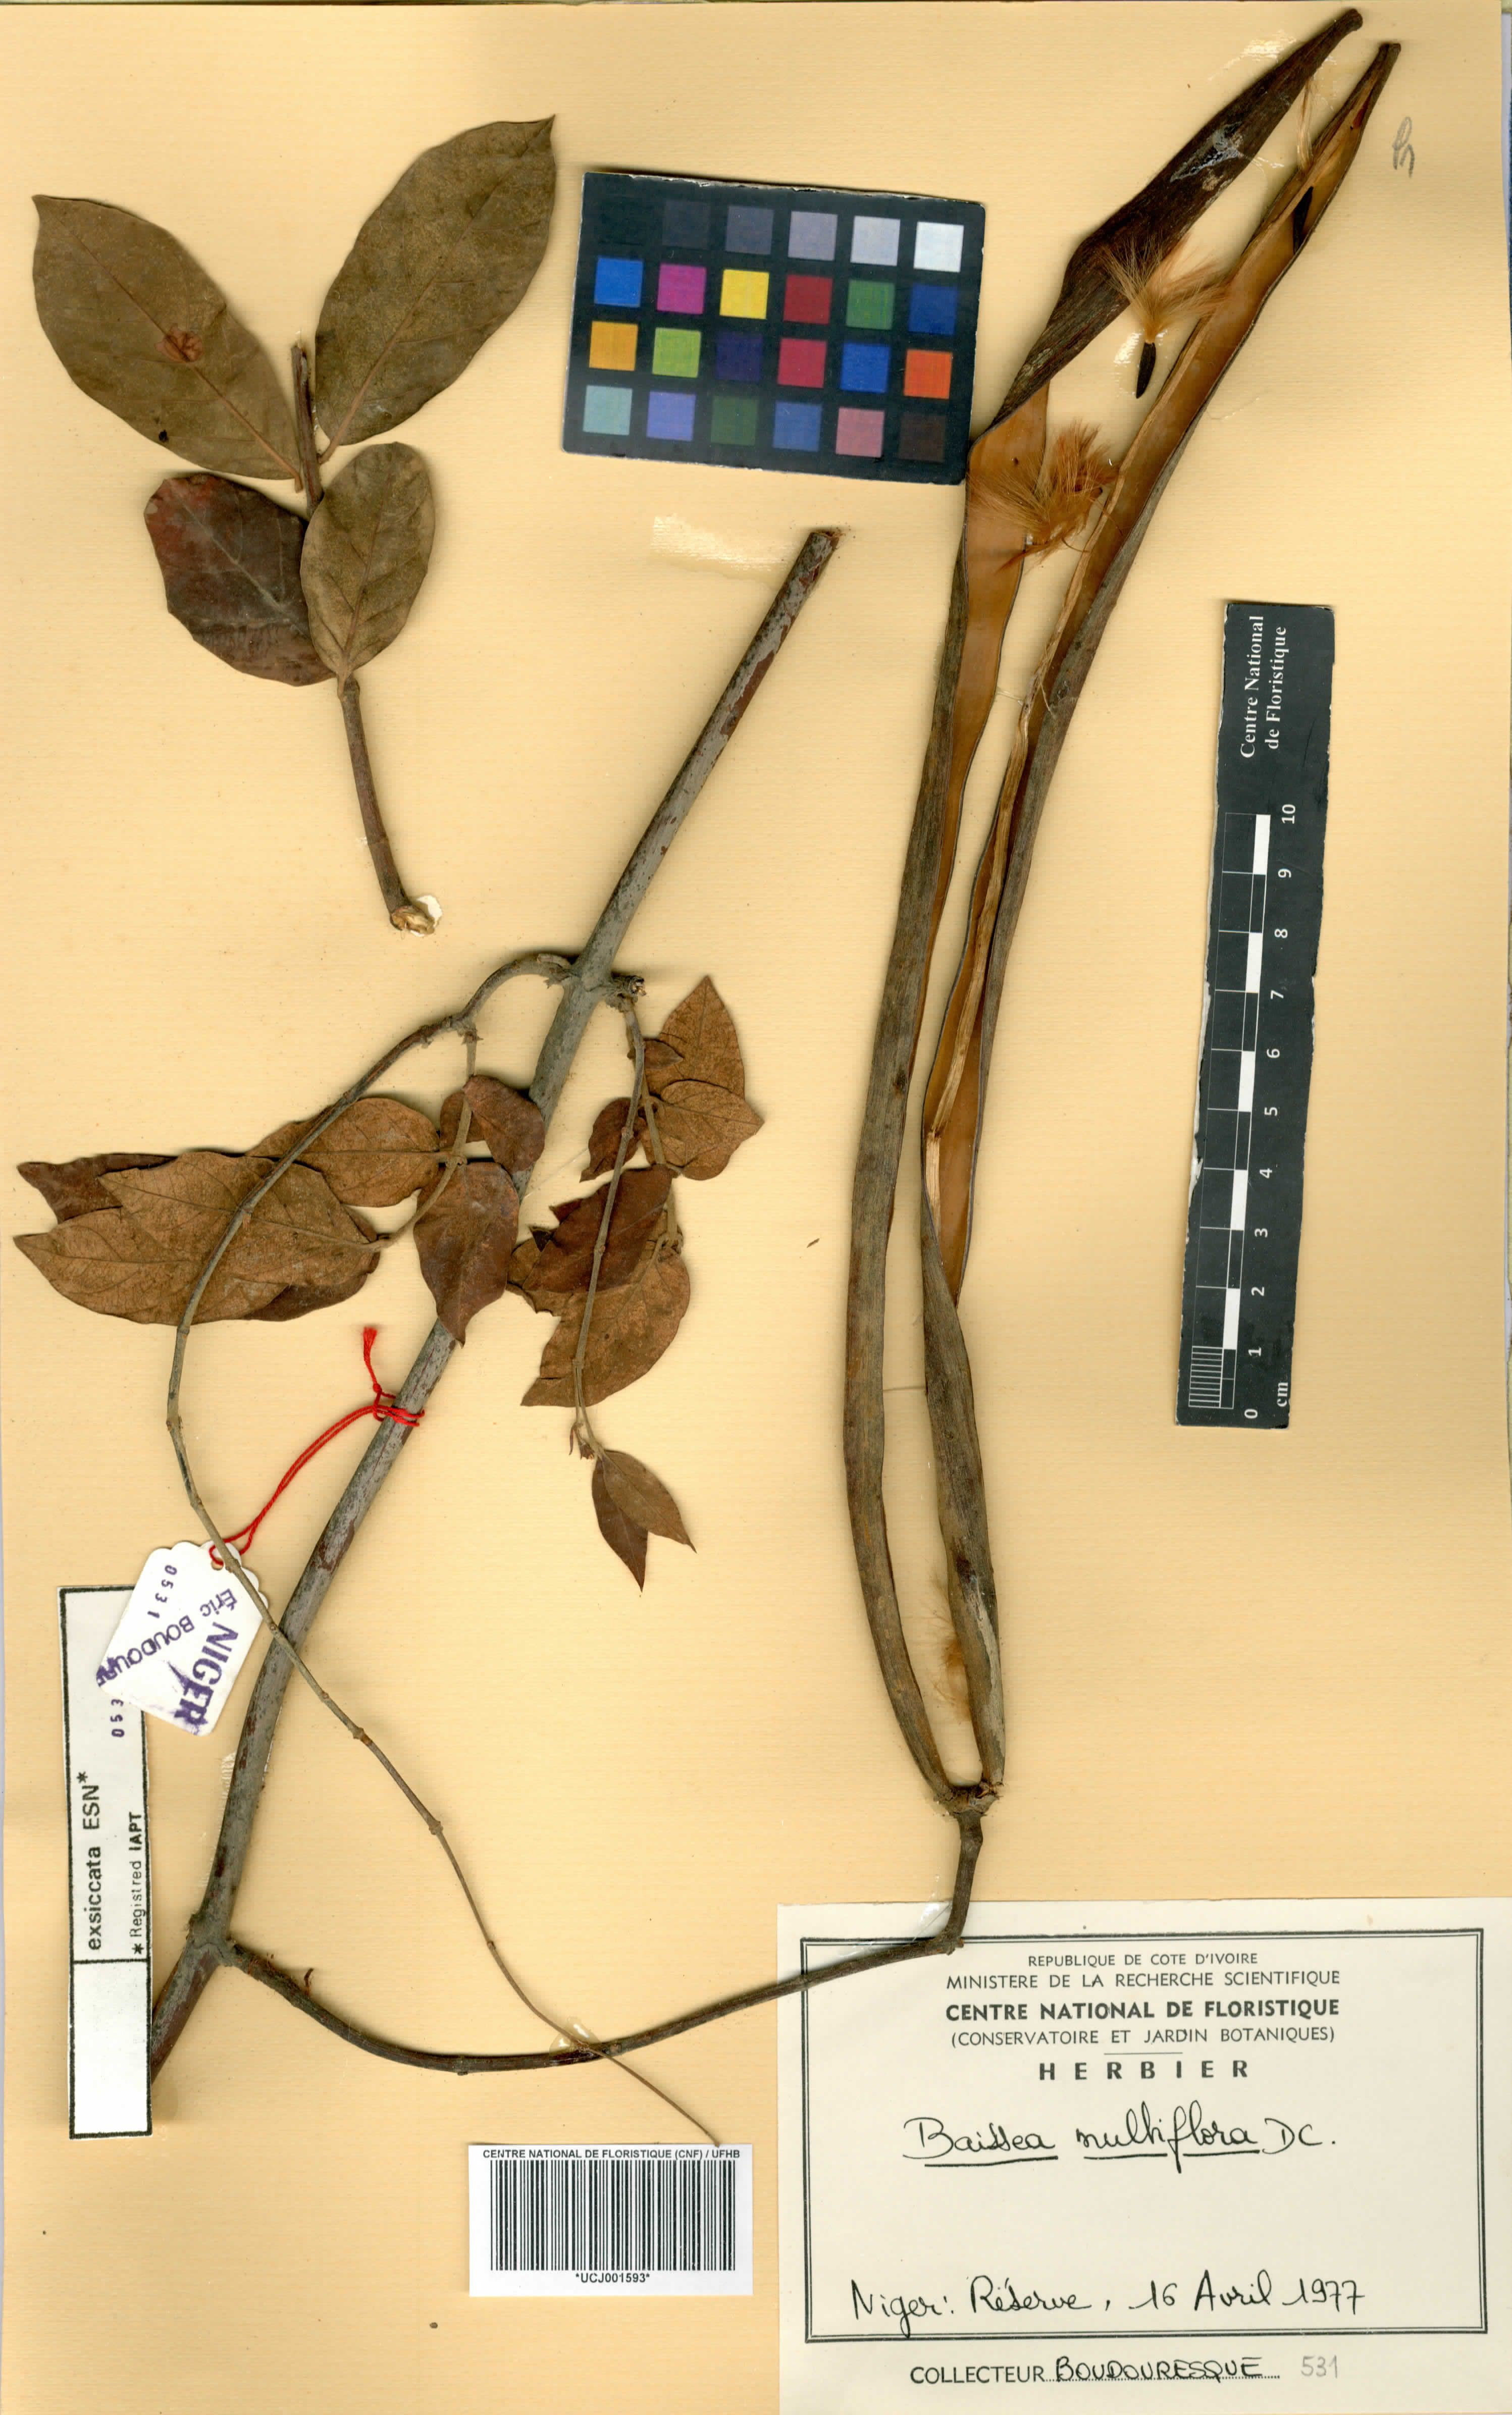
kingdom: Plantae
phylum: Tracheophyta
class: Magnoliopsida
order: Gentianales
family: Apocynaceae
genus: Baissea
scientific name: Baissea multiflora
